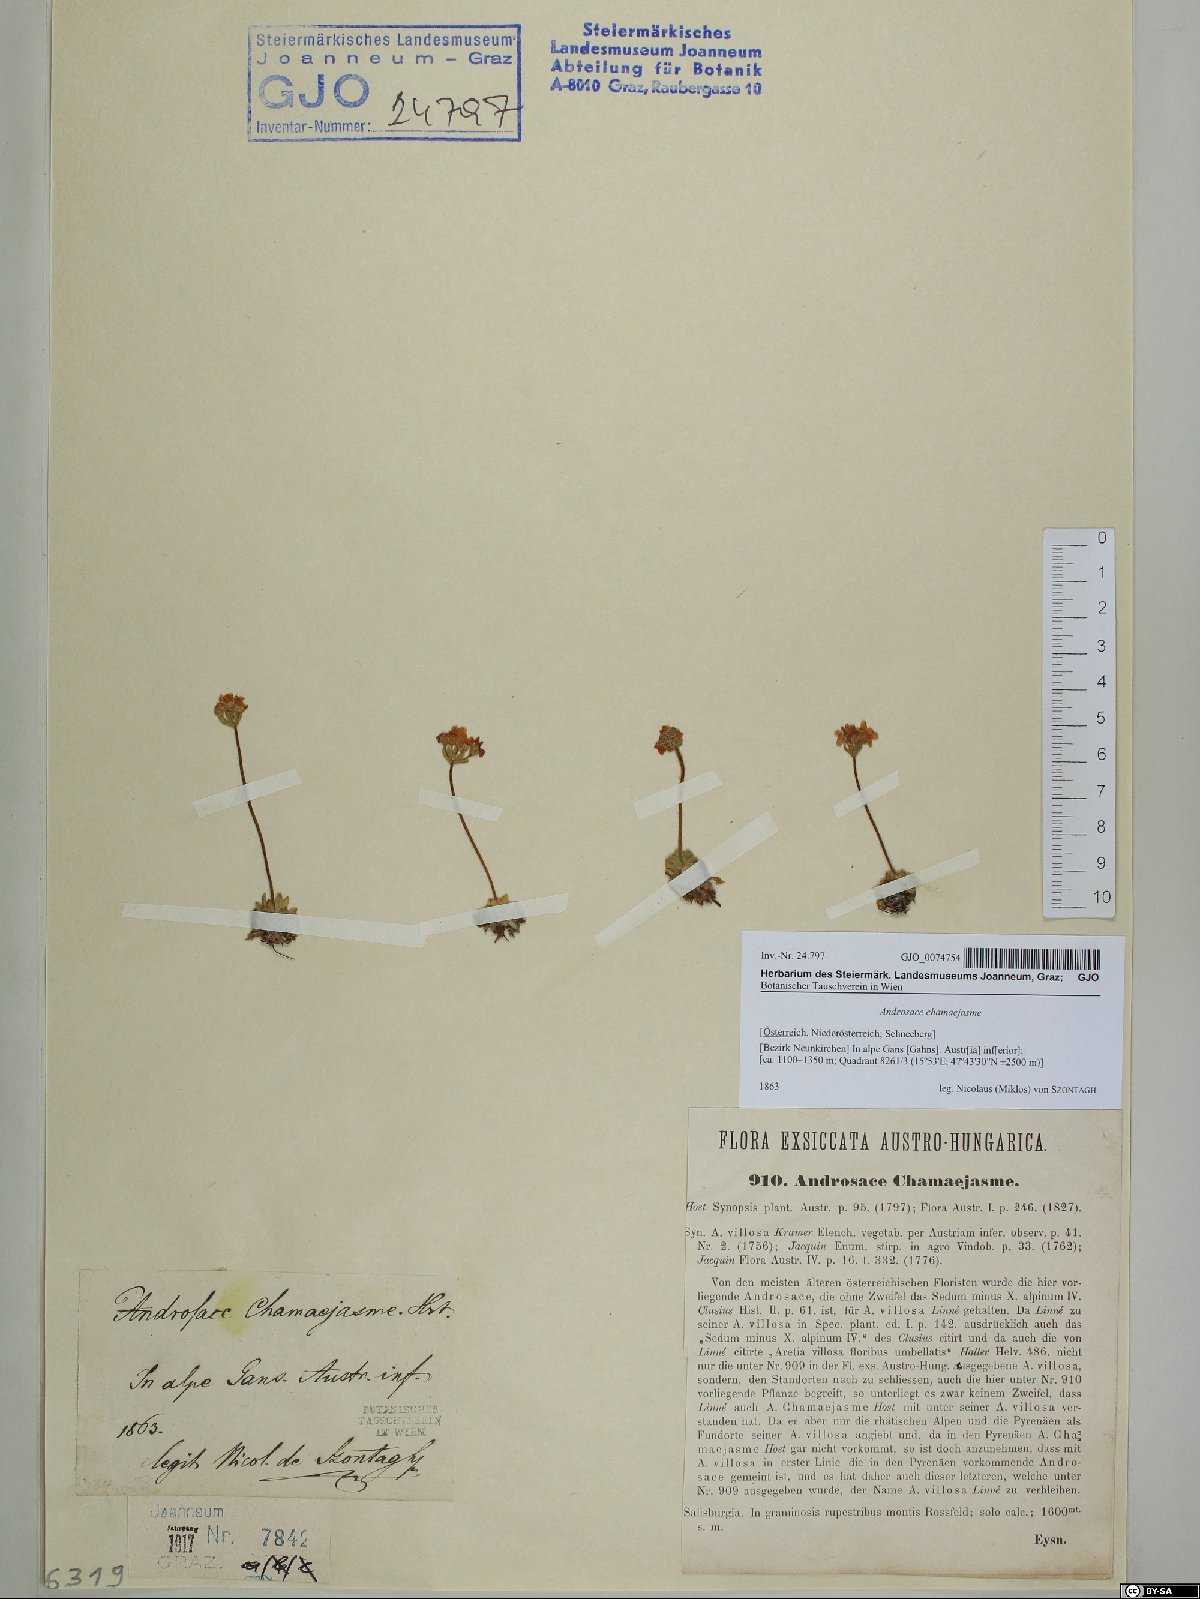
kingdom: Plantae
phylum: Tracheophyta
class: Magnoliopsida
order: Ericales
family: Primulaceae
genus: Androsace
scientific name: Androsace chamaejasme
